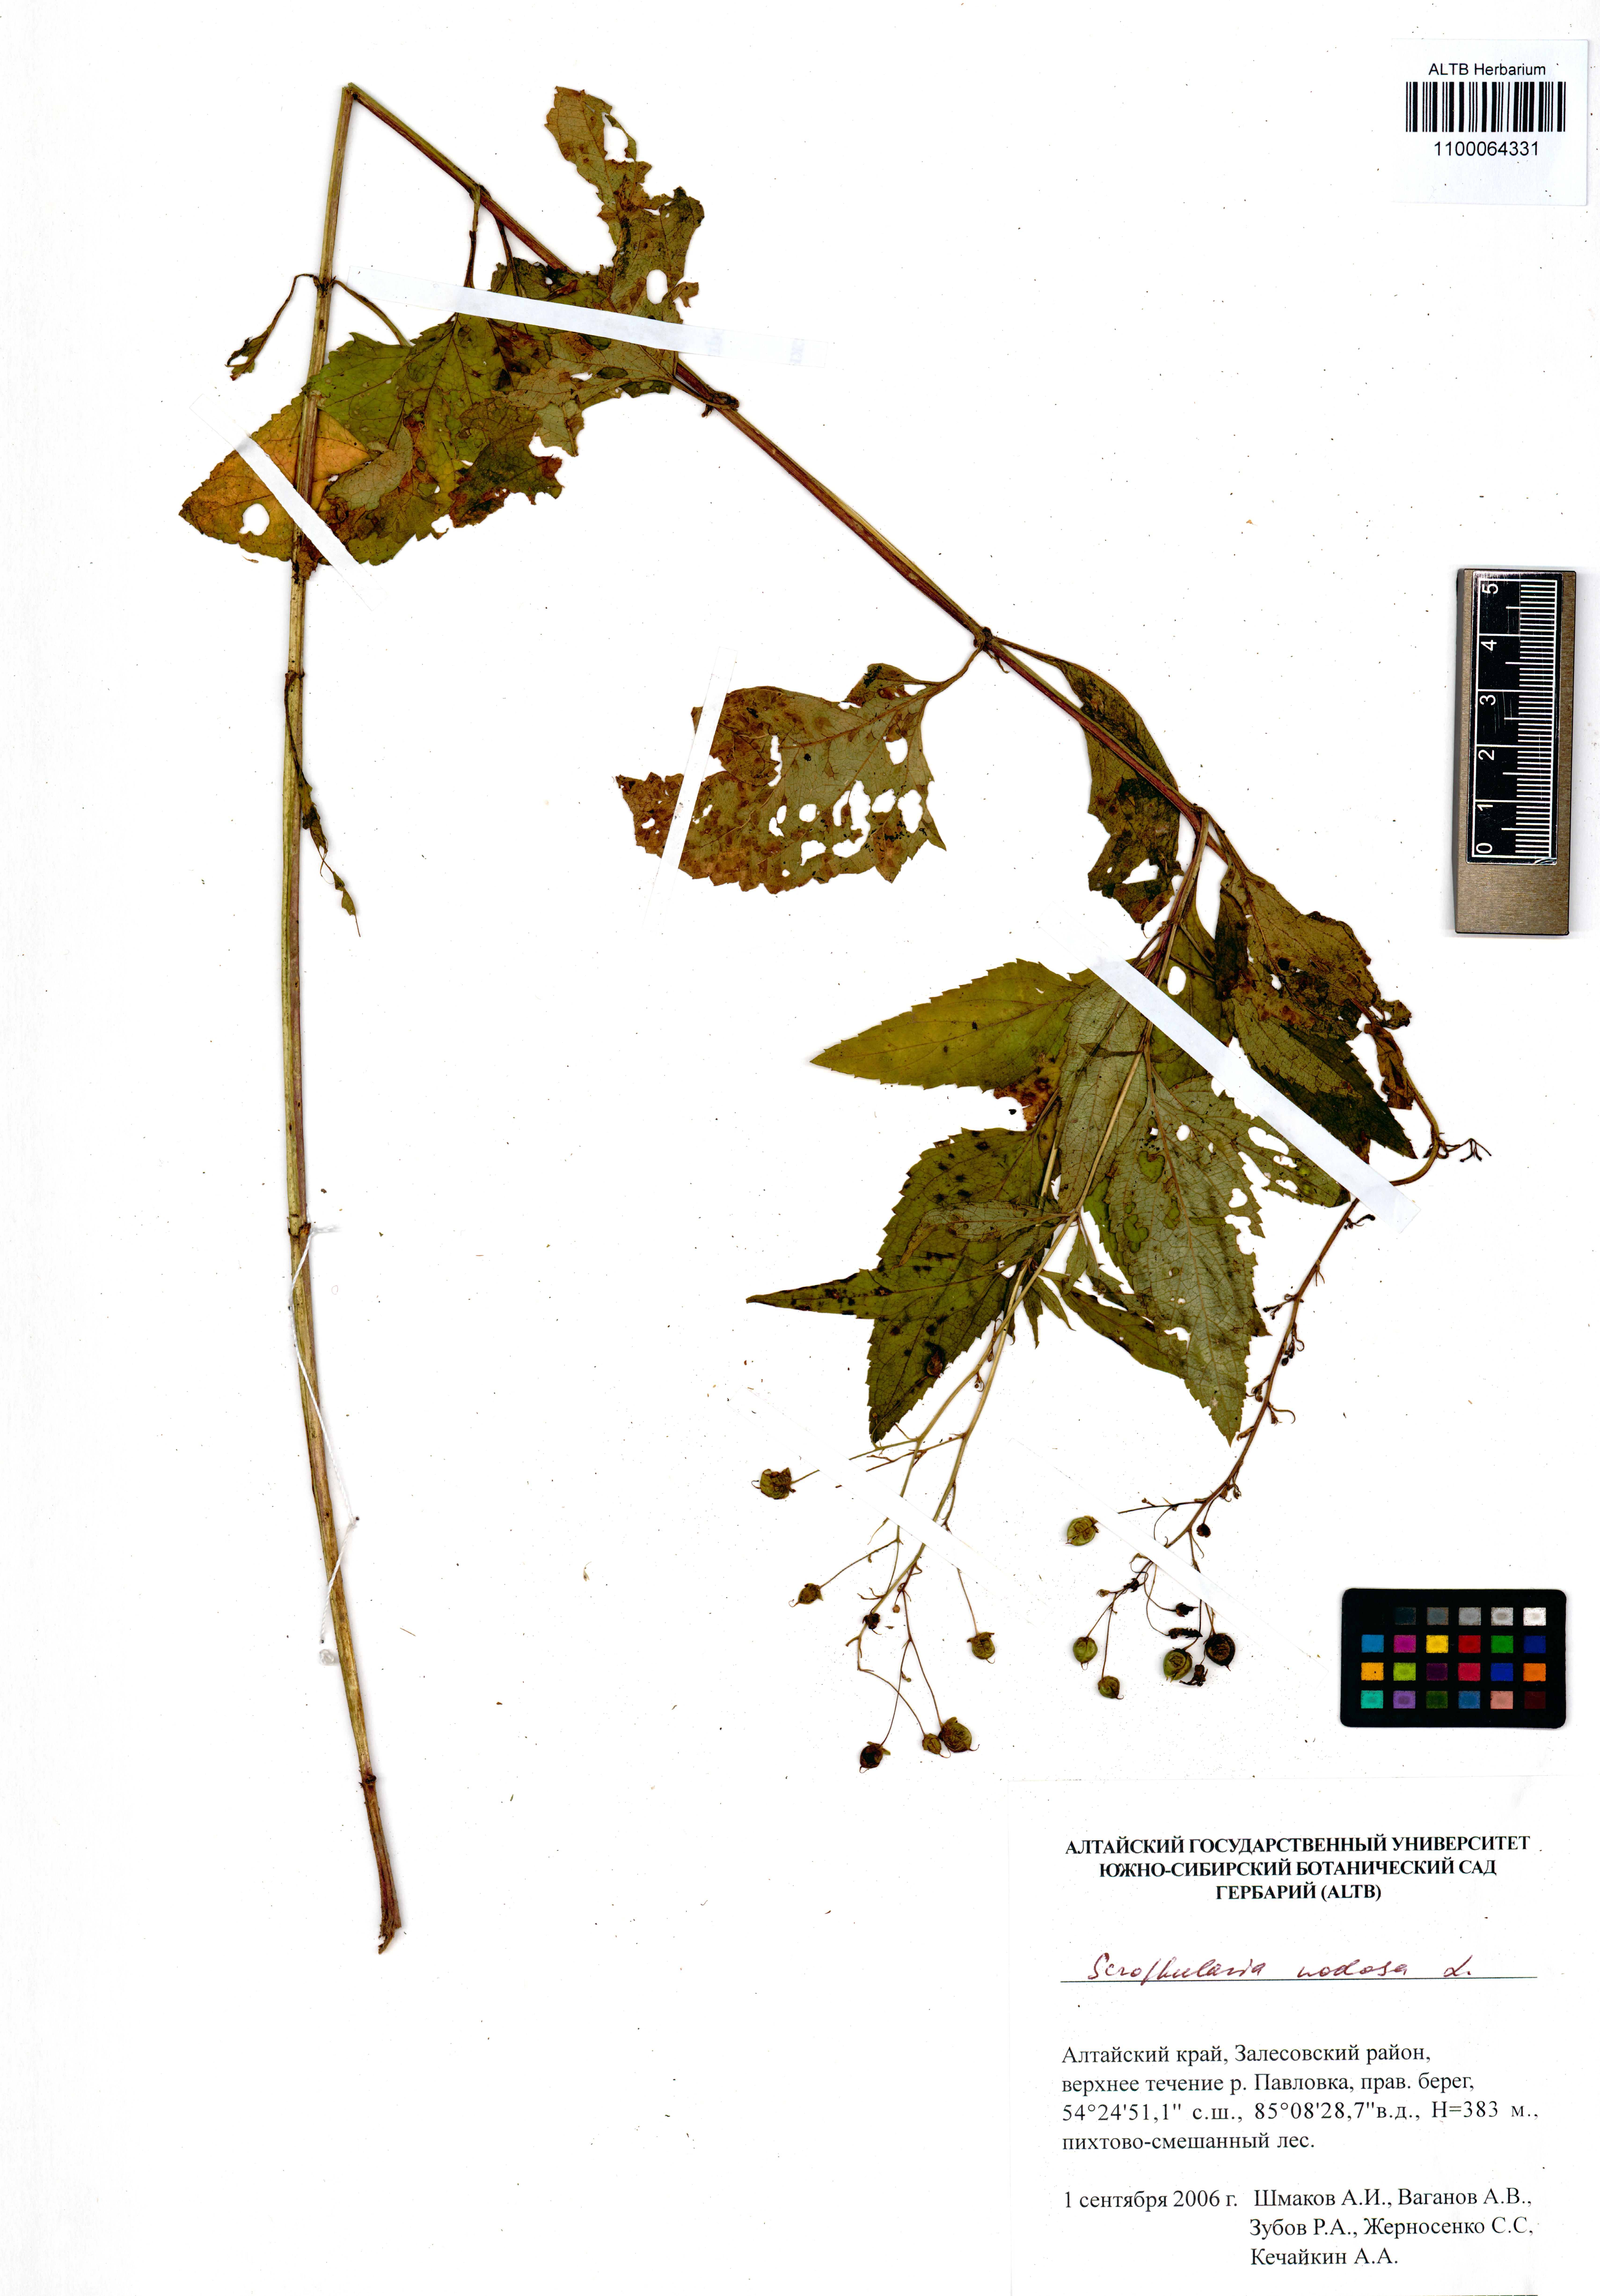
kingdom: Plantae
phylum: Tracheophyta
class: Magnoliopsida
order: Lamiales
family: Scrophulariaceae
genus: Scrophularia
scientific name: Scrophularia nodosa
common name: Common figwort
